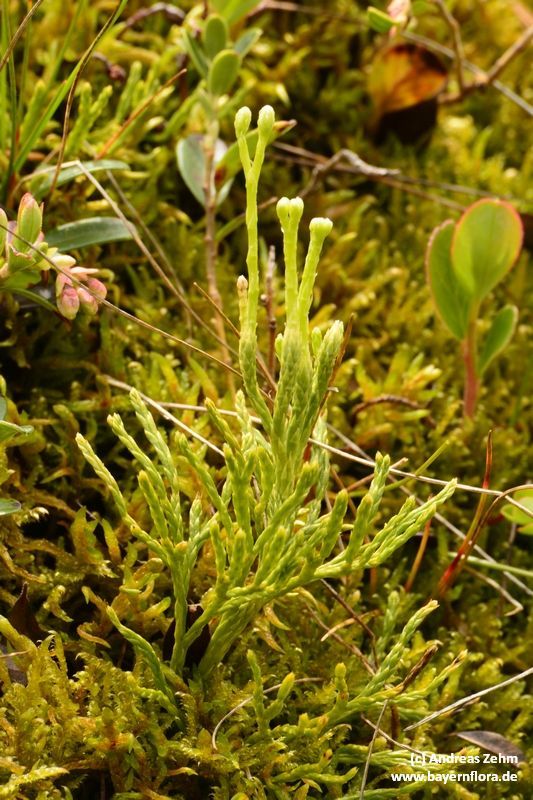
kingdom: Plantae
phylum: Tracheophyta
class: Lycopodiopsida
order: Lycopodiales
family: Lycopodiaceae
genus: Diphasiastrum
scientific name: Diphasiastrum tristachyum
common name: Blue ground-cedar
